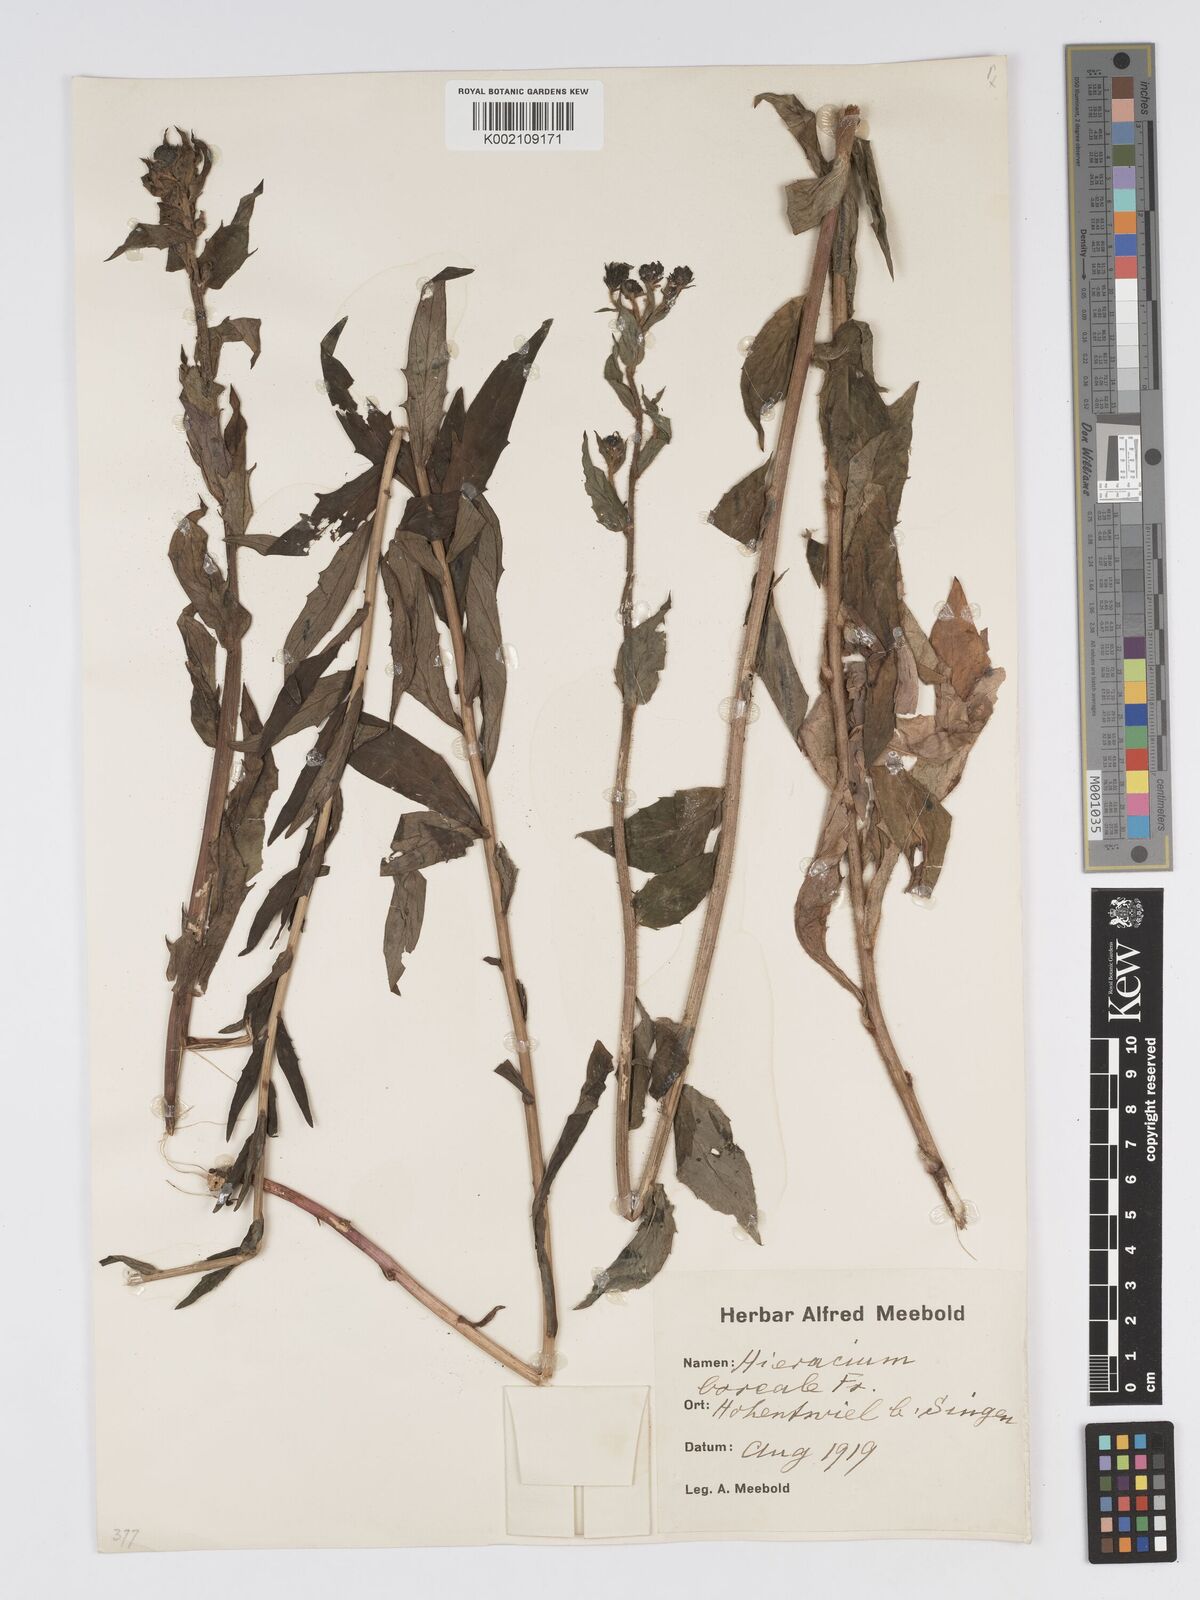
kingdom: Plantae
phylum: Tracheophyta
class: Magnoliopsida
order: Asterales
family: Asteraceae
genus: Hieracium
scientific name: Hieracium sabaudum
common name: New england hawkweed
